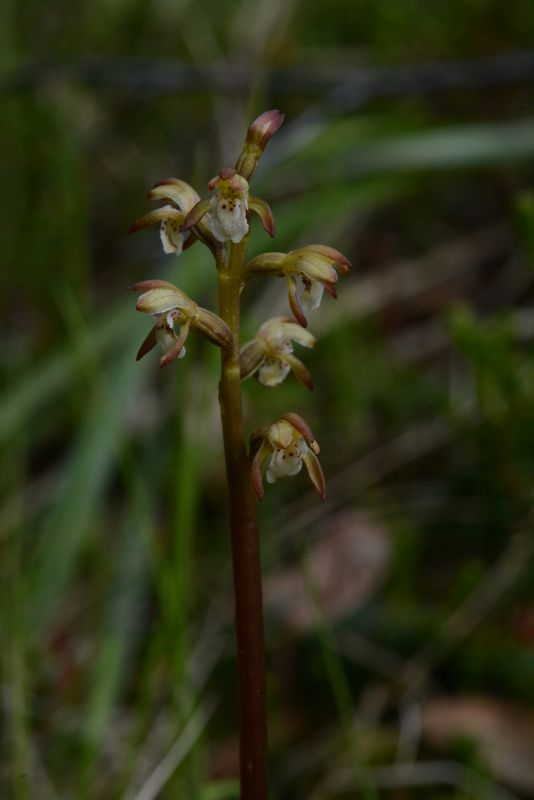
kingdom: Plantae
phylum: Tracheophyta
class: Liliopsida
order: Asparagales
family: Orchidaceae
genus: Corallorhiza
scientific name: Corallorhiza trifida
